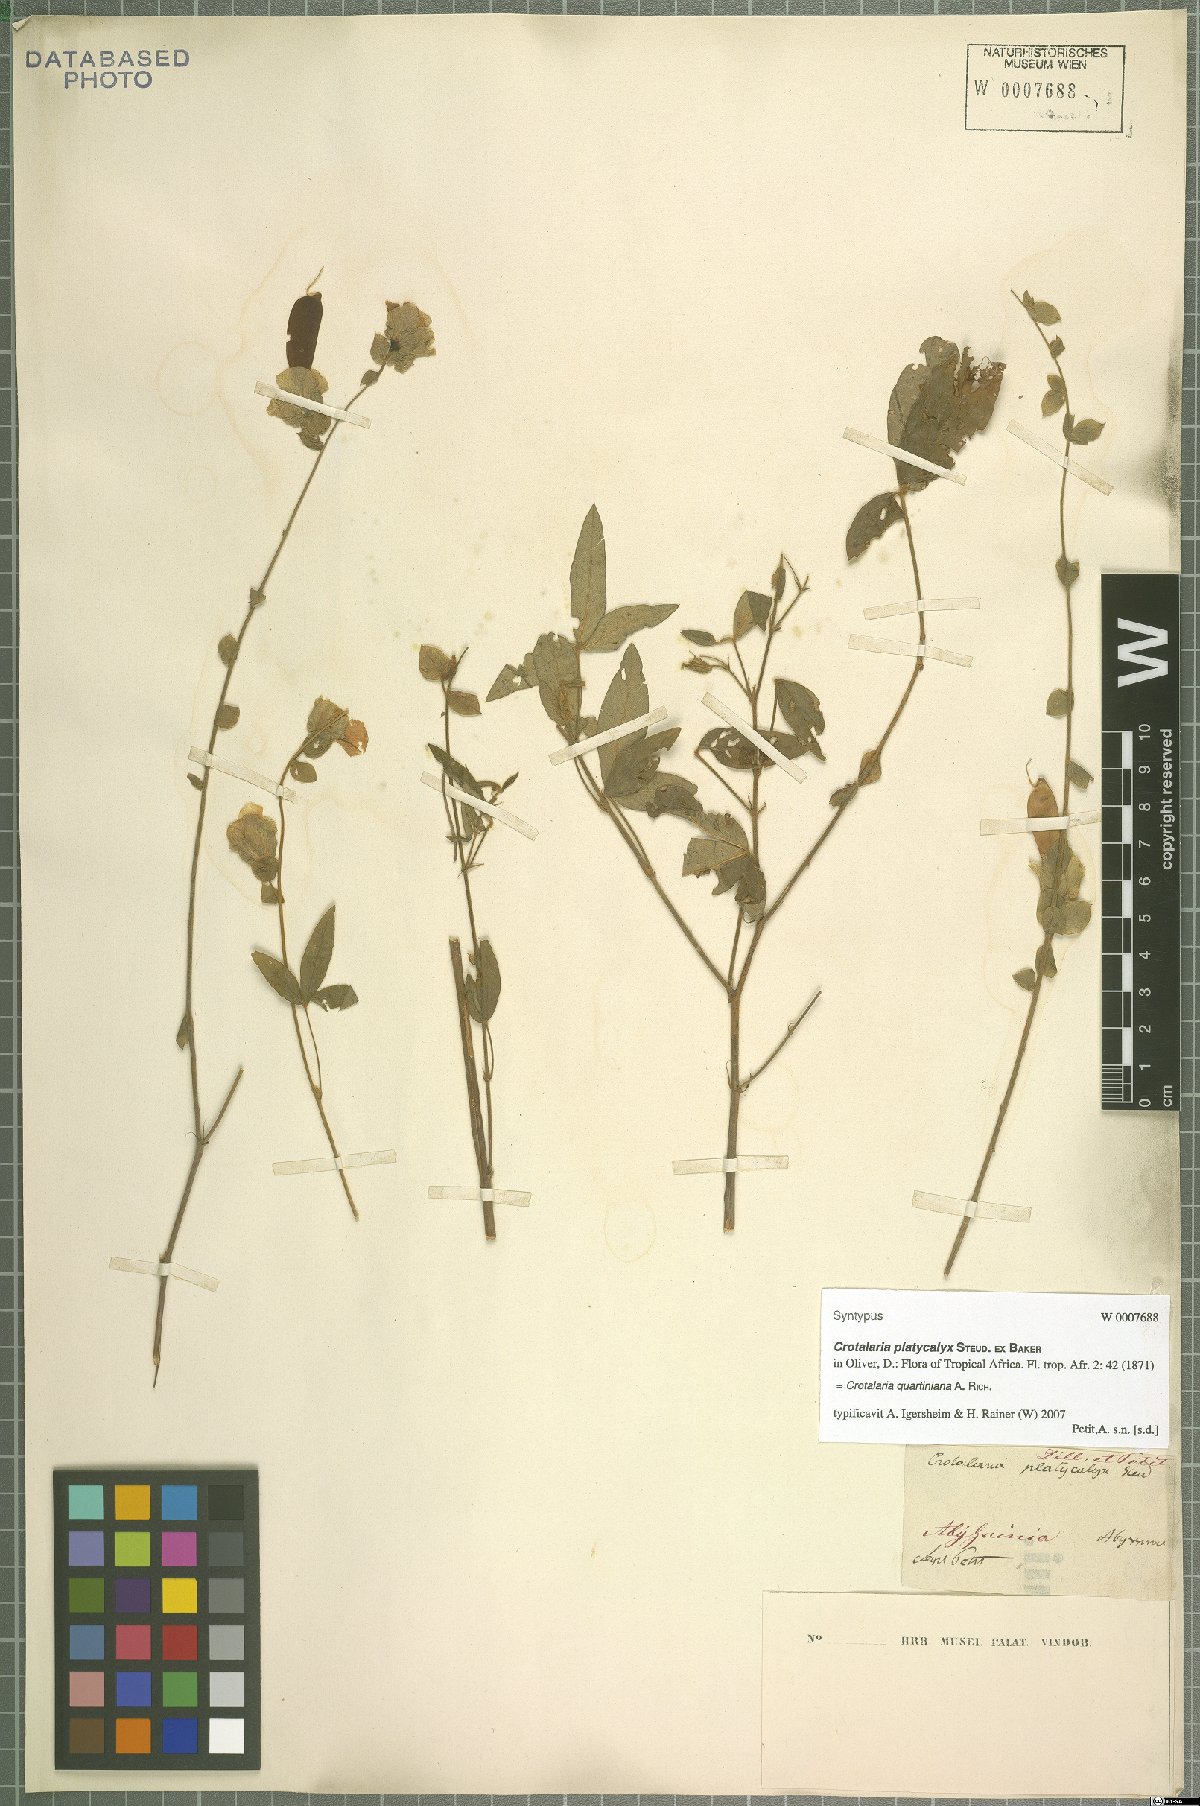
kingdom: Plantae
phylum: Tracheophyta
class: Magnoliopsida
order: Fabales
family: Fabaceae
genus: Crotalaria
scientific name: Crotalaria quartiniana
